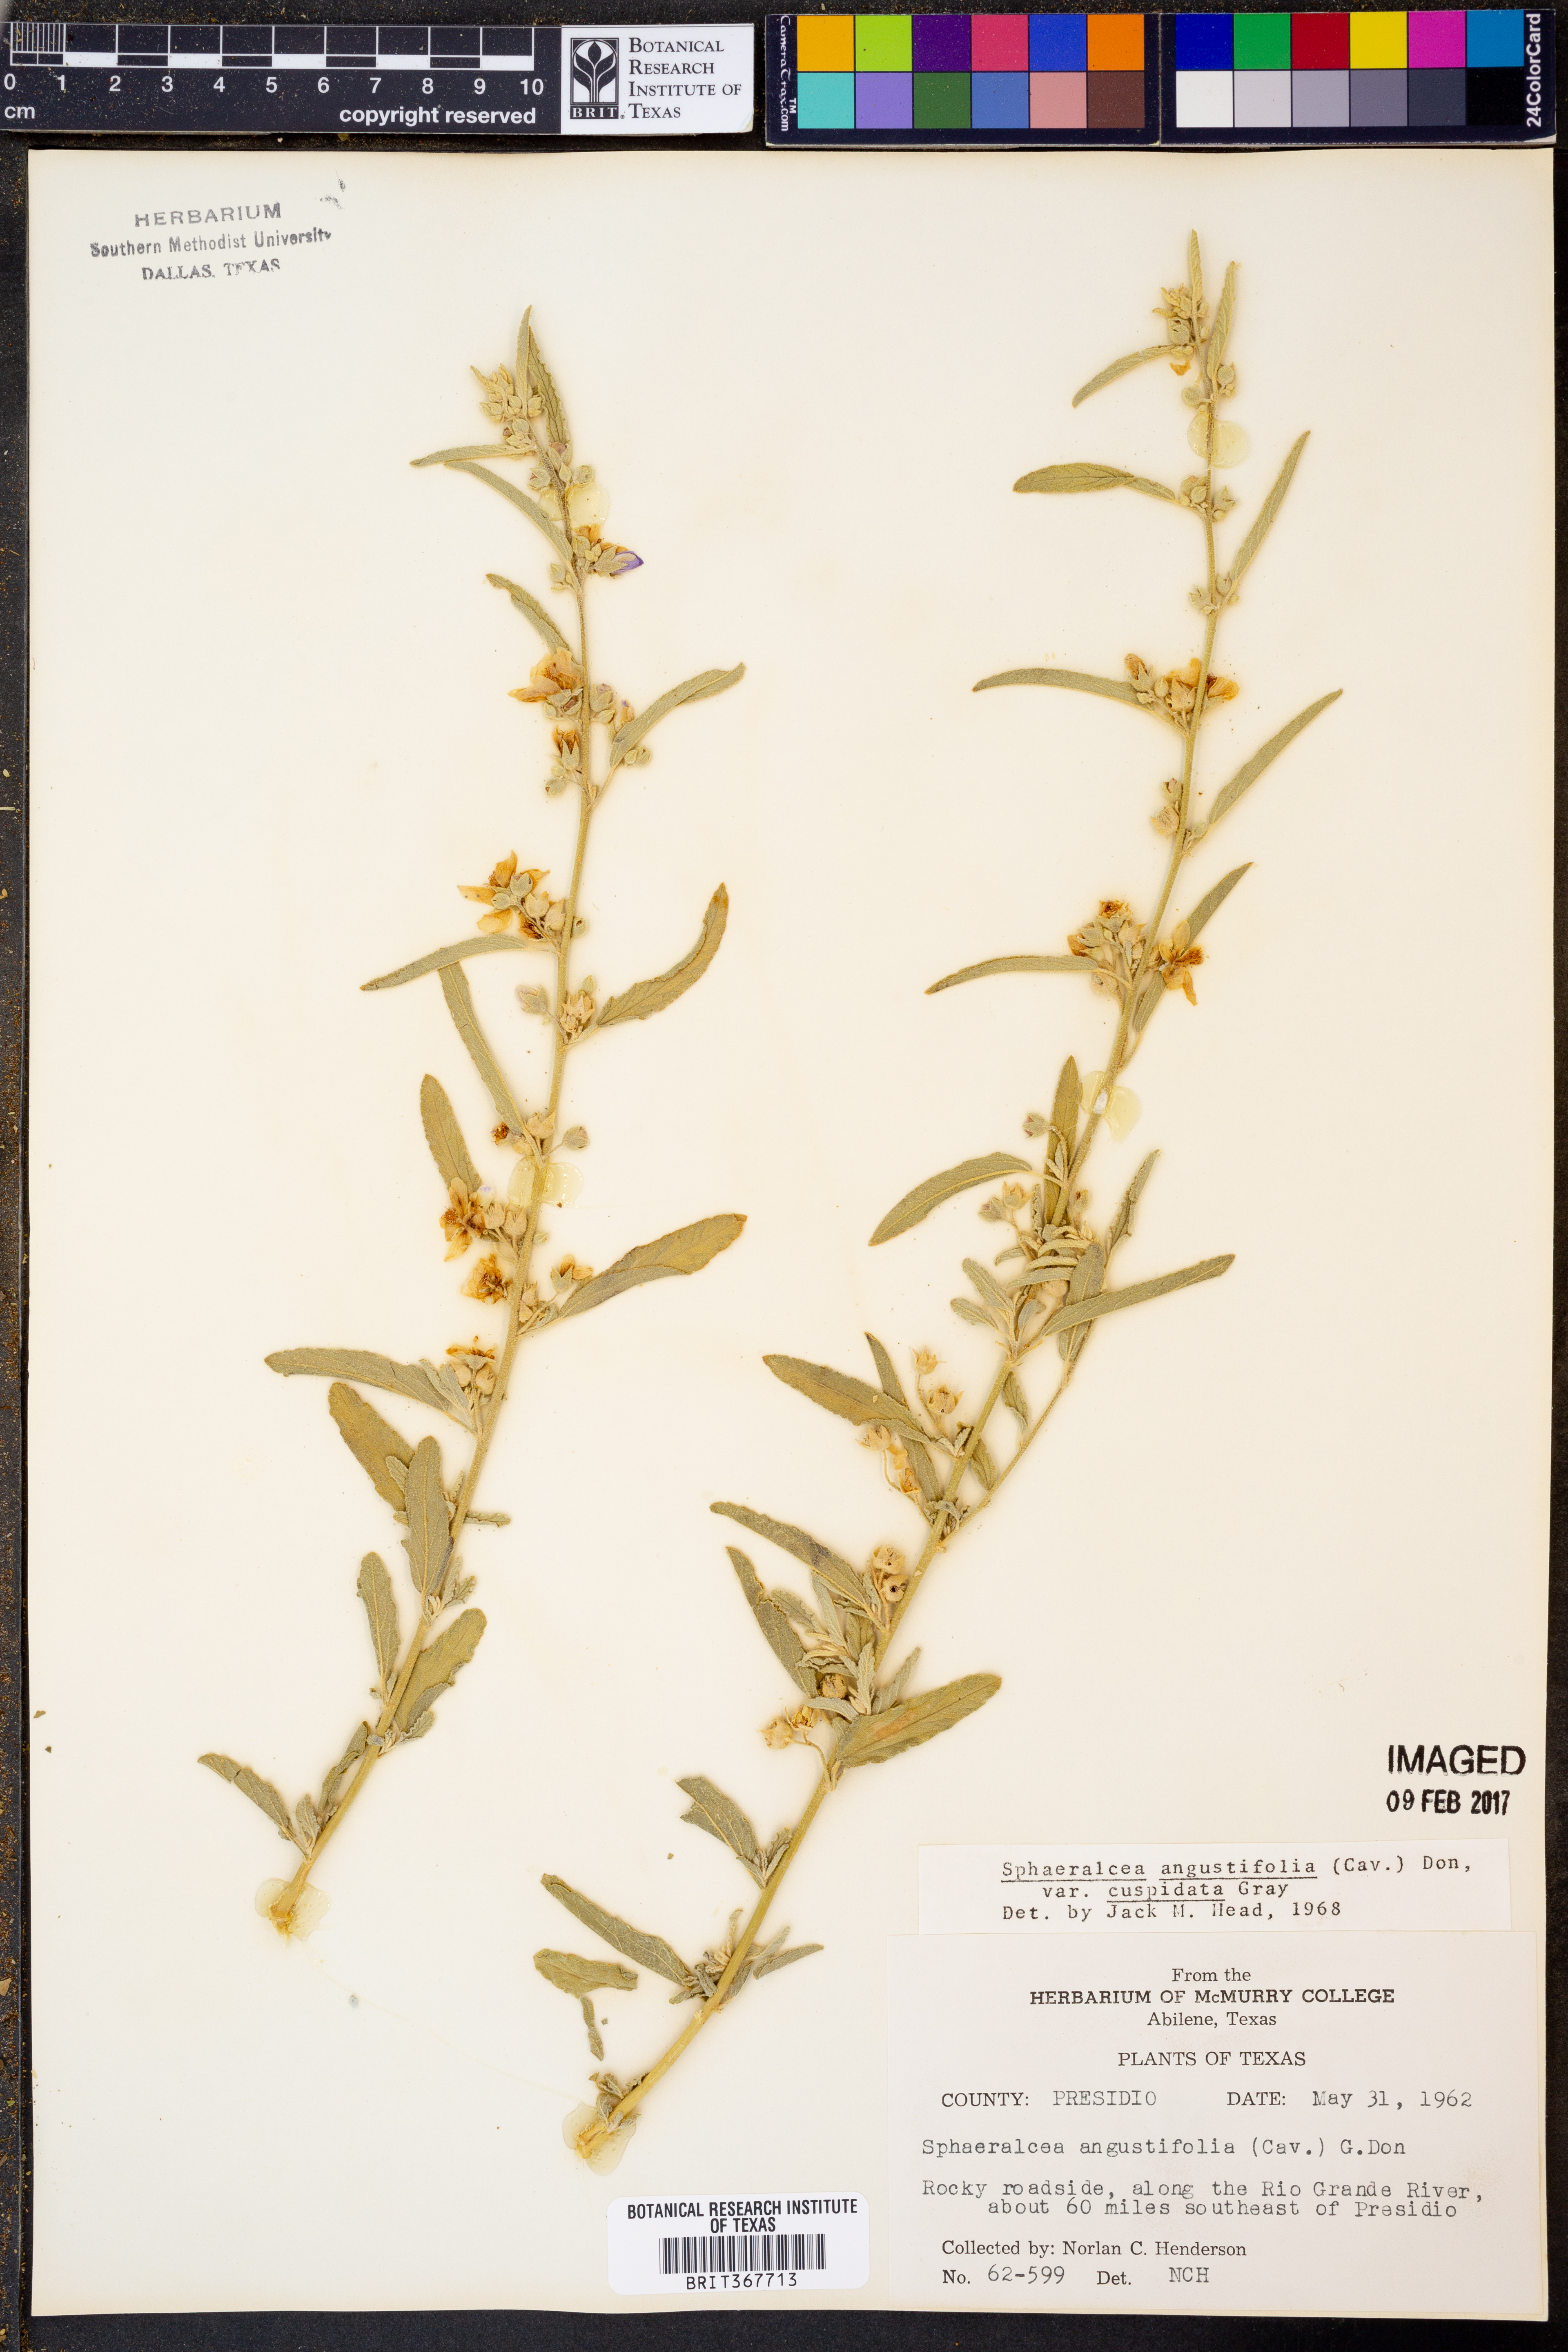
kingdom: Plantae
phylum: Tracheophyta
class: Magnoliopsida
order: Malvales
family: Malvaceae
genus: Sphaeralcea
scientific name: Sphaeralcea angustifolia
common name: Copper globe-mallow
